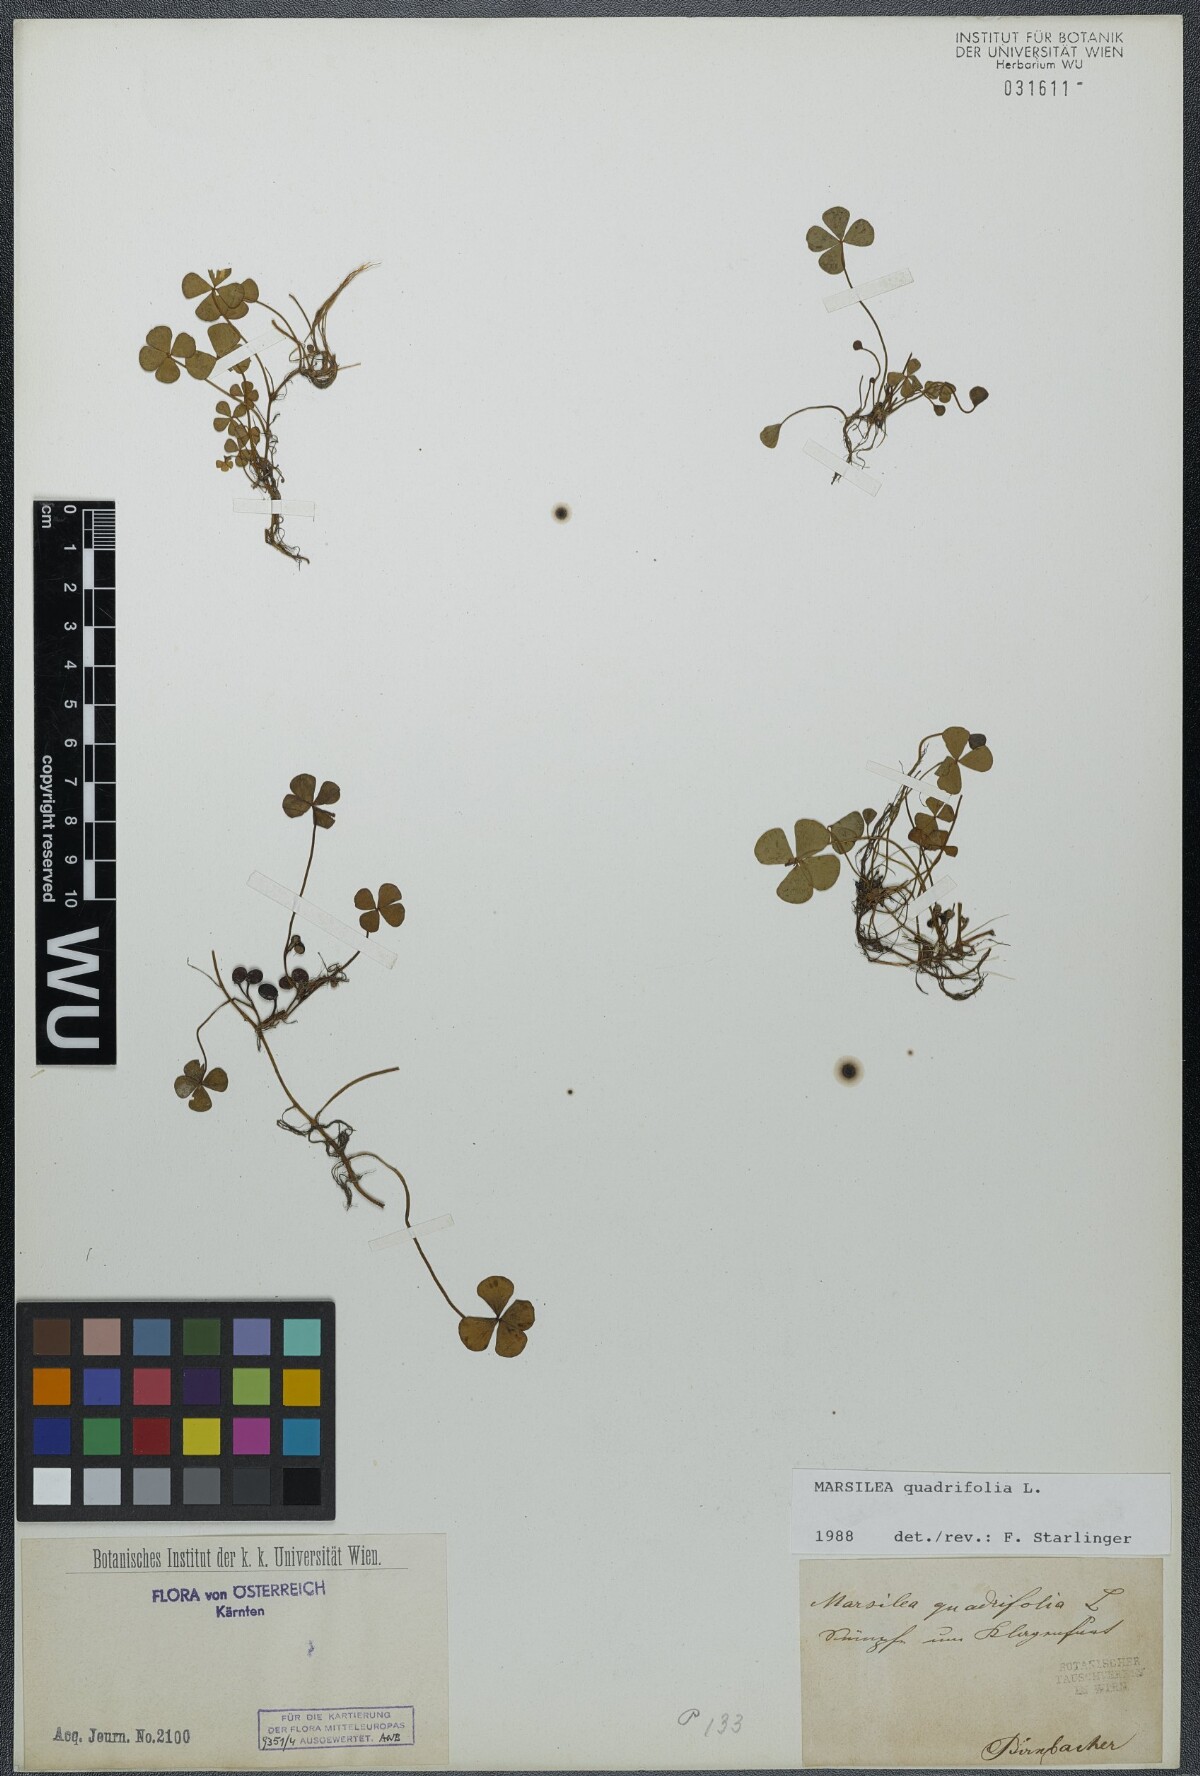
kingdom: Plantae
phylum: Tracheophyta
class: Polypodiopsida
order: Salviniales
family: Marsileaceae
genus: Marsilea
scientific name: Marsilea quadrifolia
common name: Water shamrock
